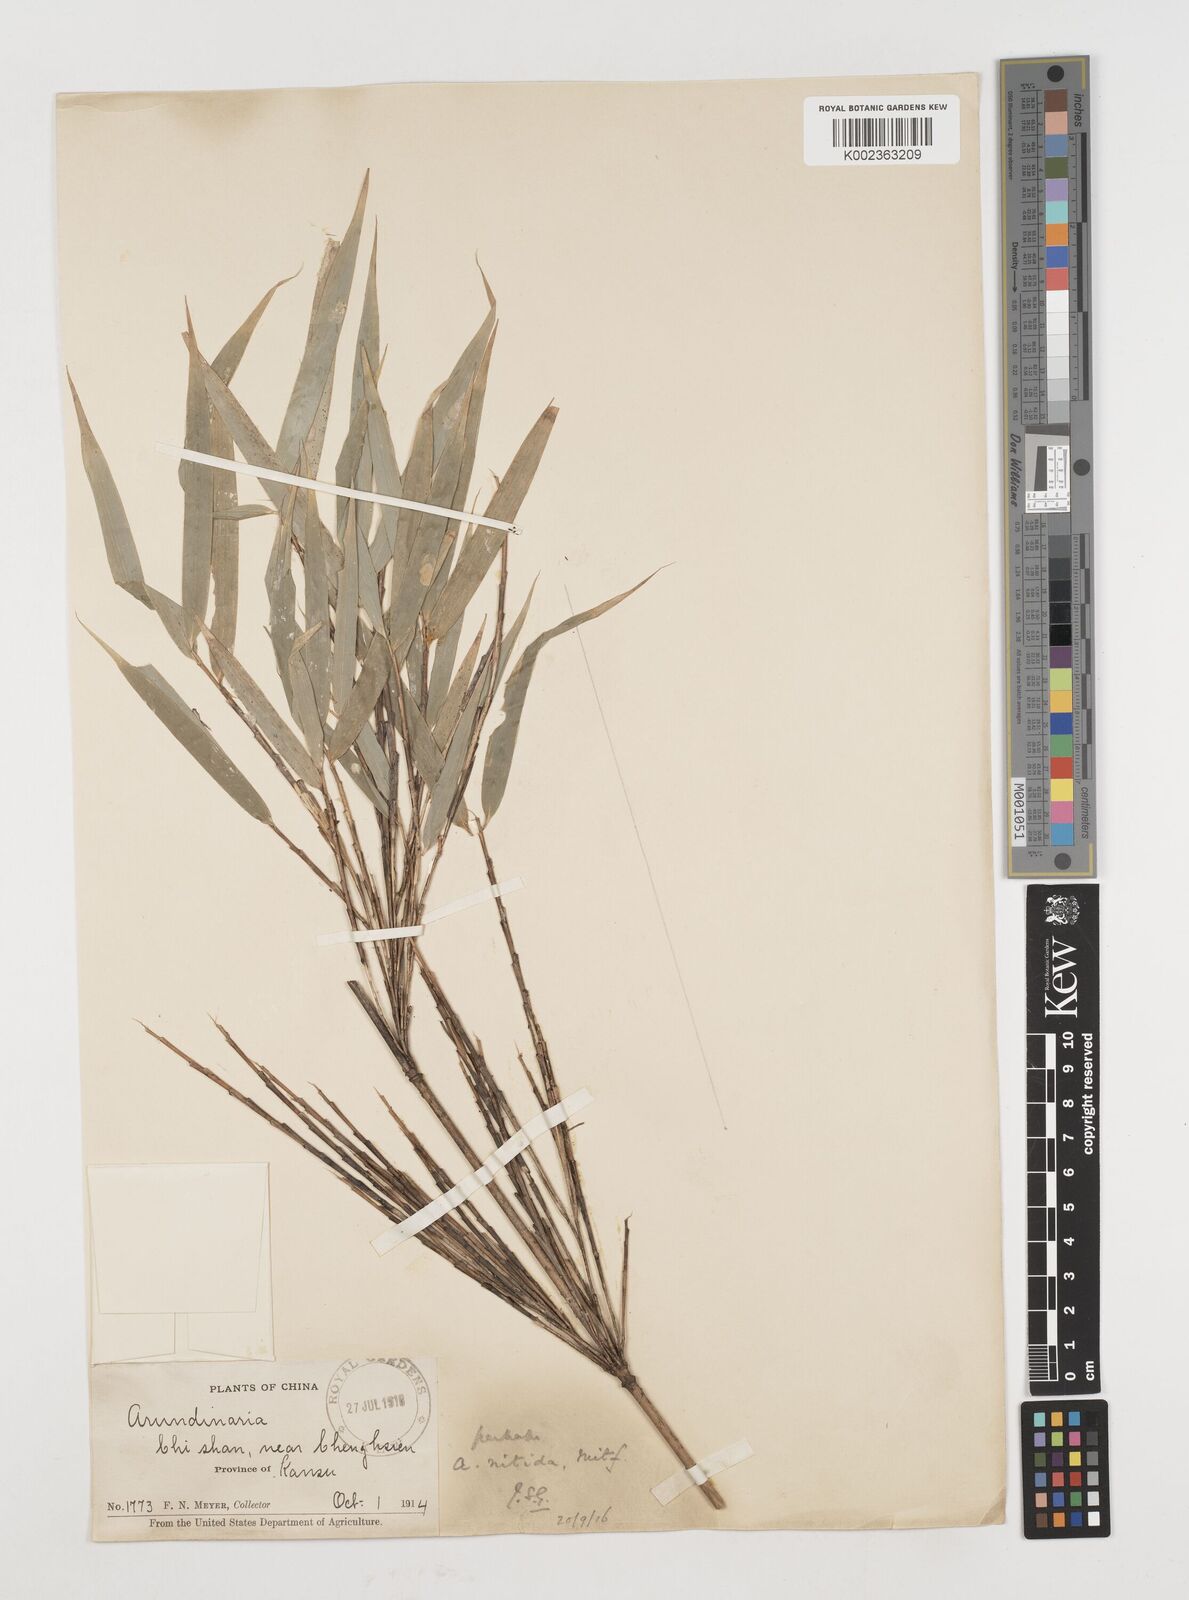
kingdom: Plantae
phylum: Tracheophyta
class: Liliopsida
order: Poales
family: Poaceae
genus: Fargesia
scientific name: Fargesia nitida ex
